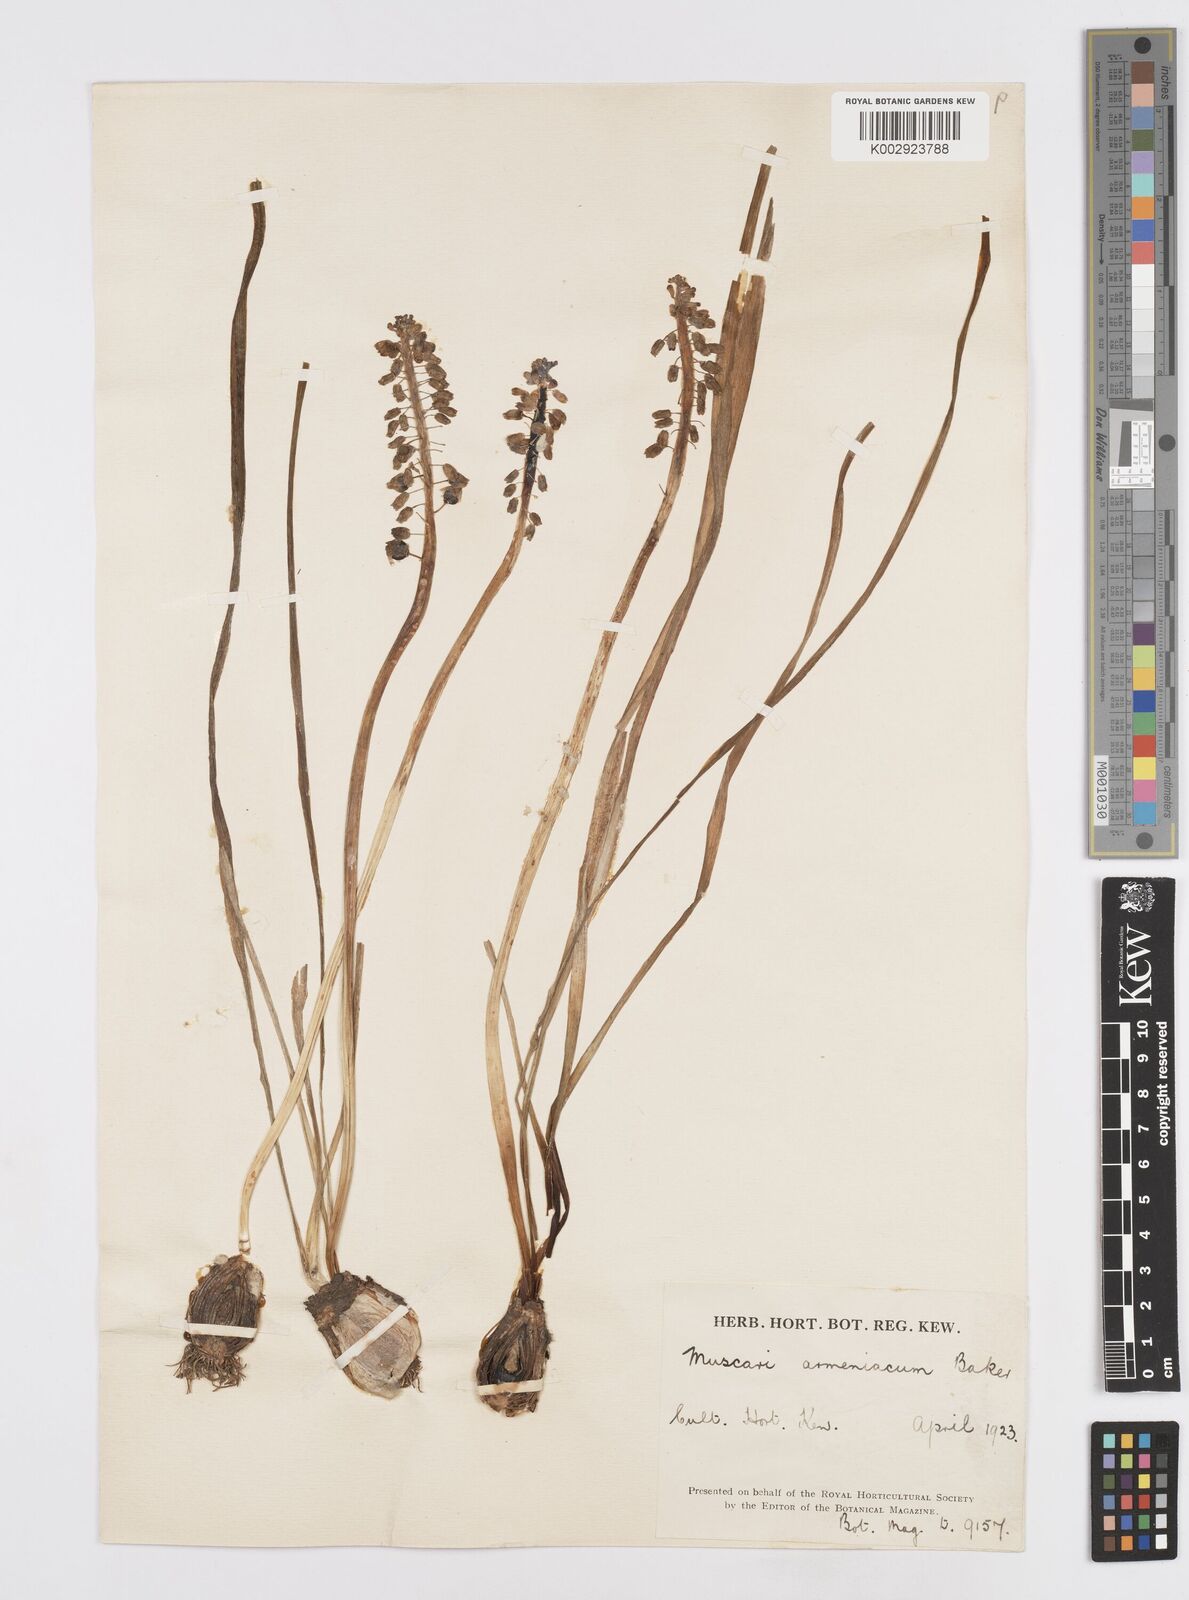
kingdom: Plantae
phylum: Tracheophyta
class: Liliopsida
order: Asparagales
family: Asparagaceae
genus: Muscari
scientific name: Muscari
